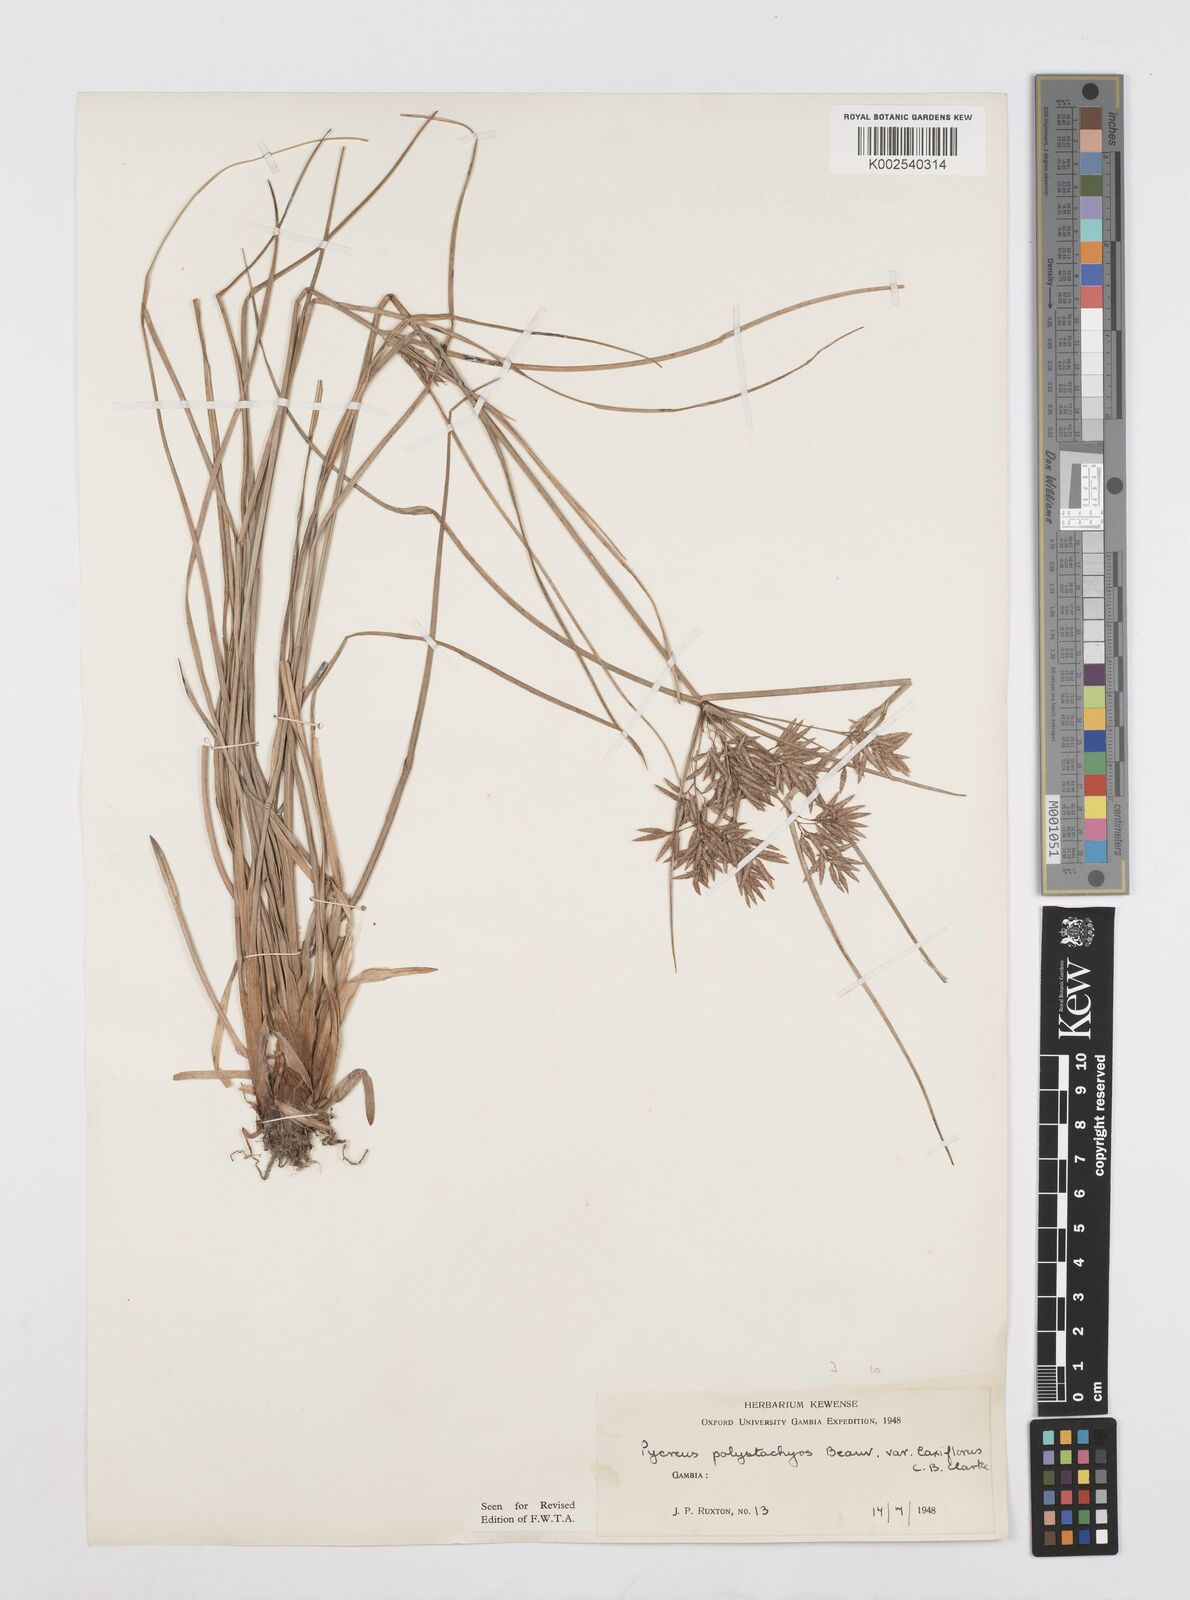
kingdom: Plantae
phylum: Tracheophyta
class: Liliopsida
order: Poales
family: Cyperaceae
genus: Cyperus
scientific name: Cyperus polystachyos
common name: Bunchy flat sedge
